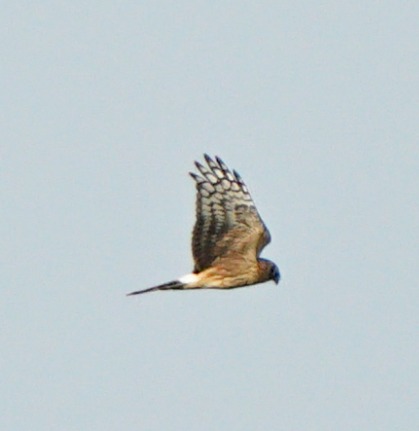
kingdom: Animalia
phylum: Chordata
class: Aves
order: Accipitriformes
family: Accipitridae
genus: Circus
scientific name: Circus cyaneus
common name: Blå kærhøg
